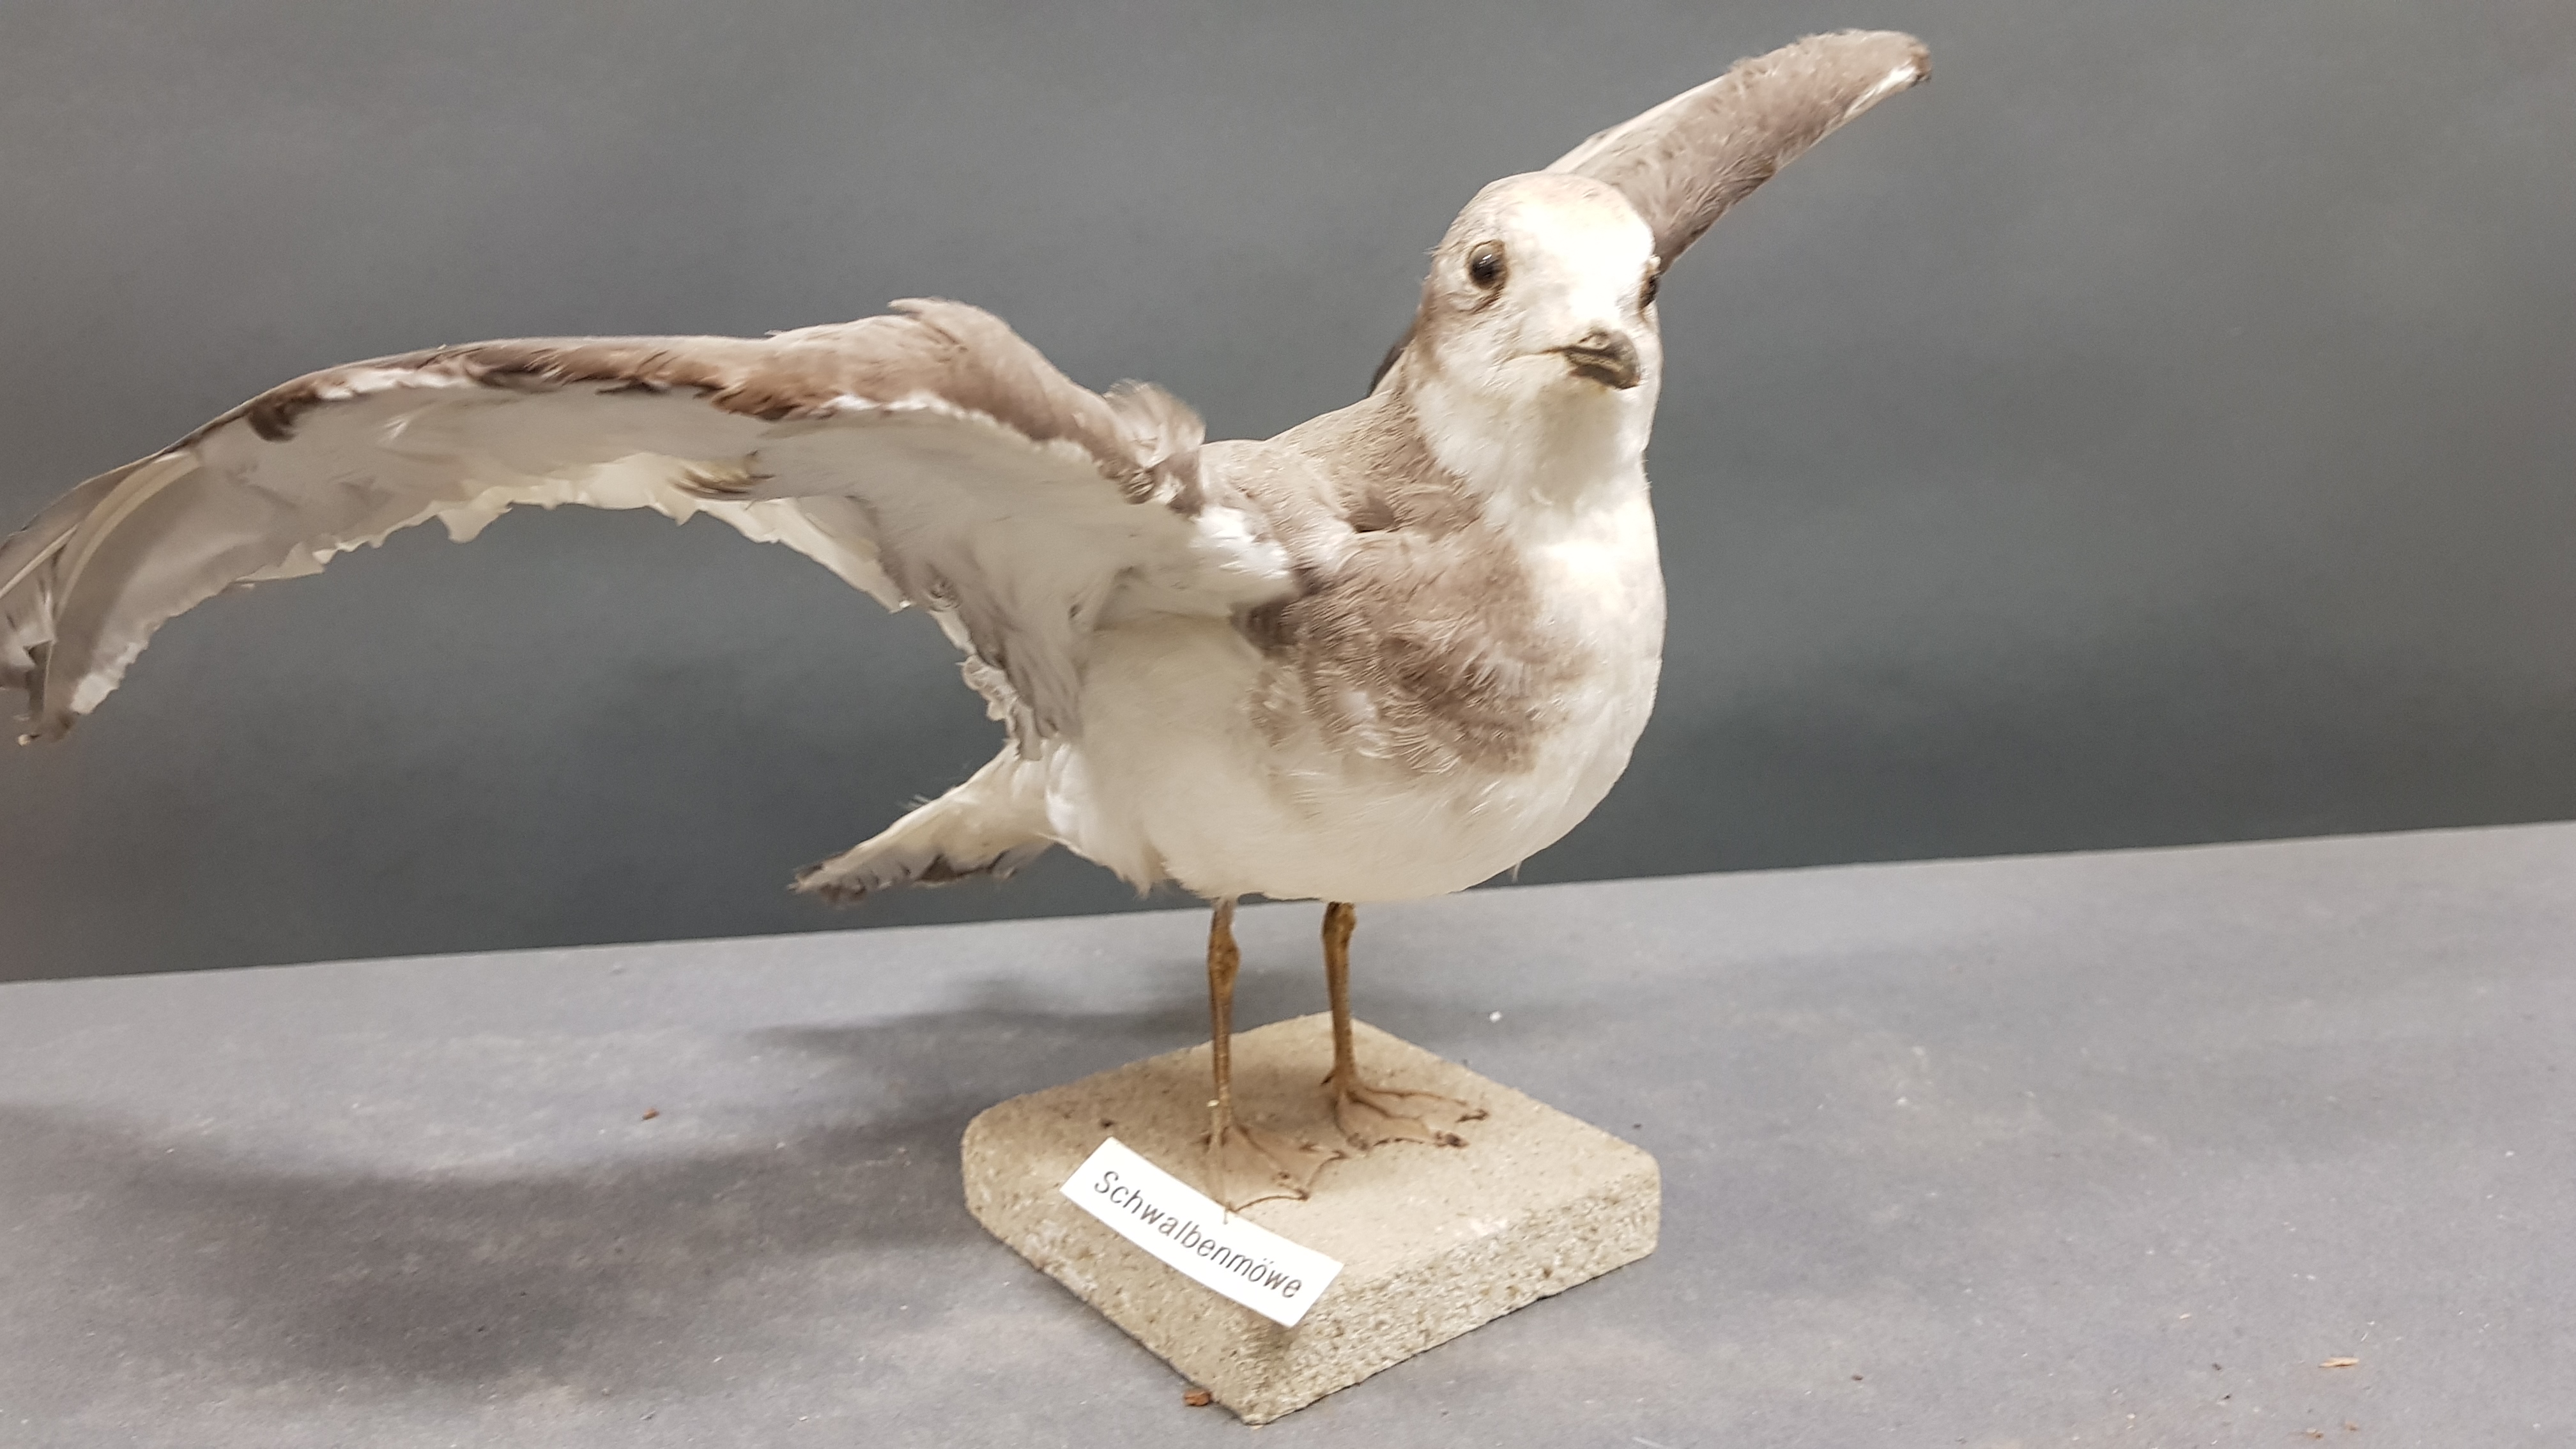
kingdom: Animalia
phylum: Chordata
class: Aves
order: Charadriiformes
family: Laridae
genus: Xema
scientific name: Xema sabini
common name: Sabine's gull
